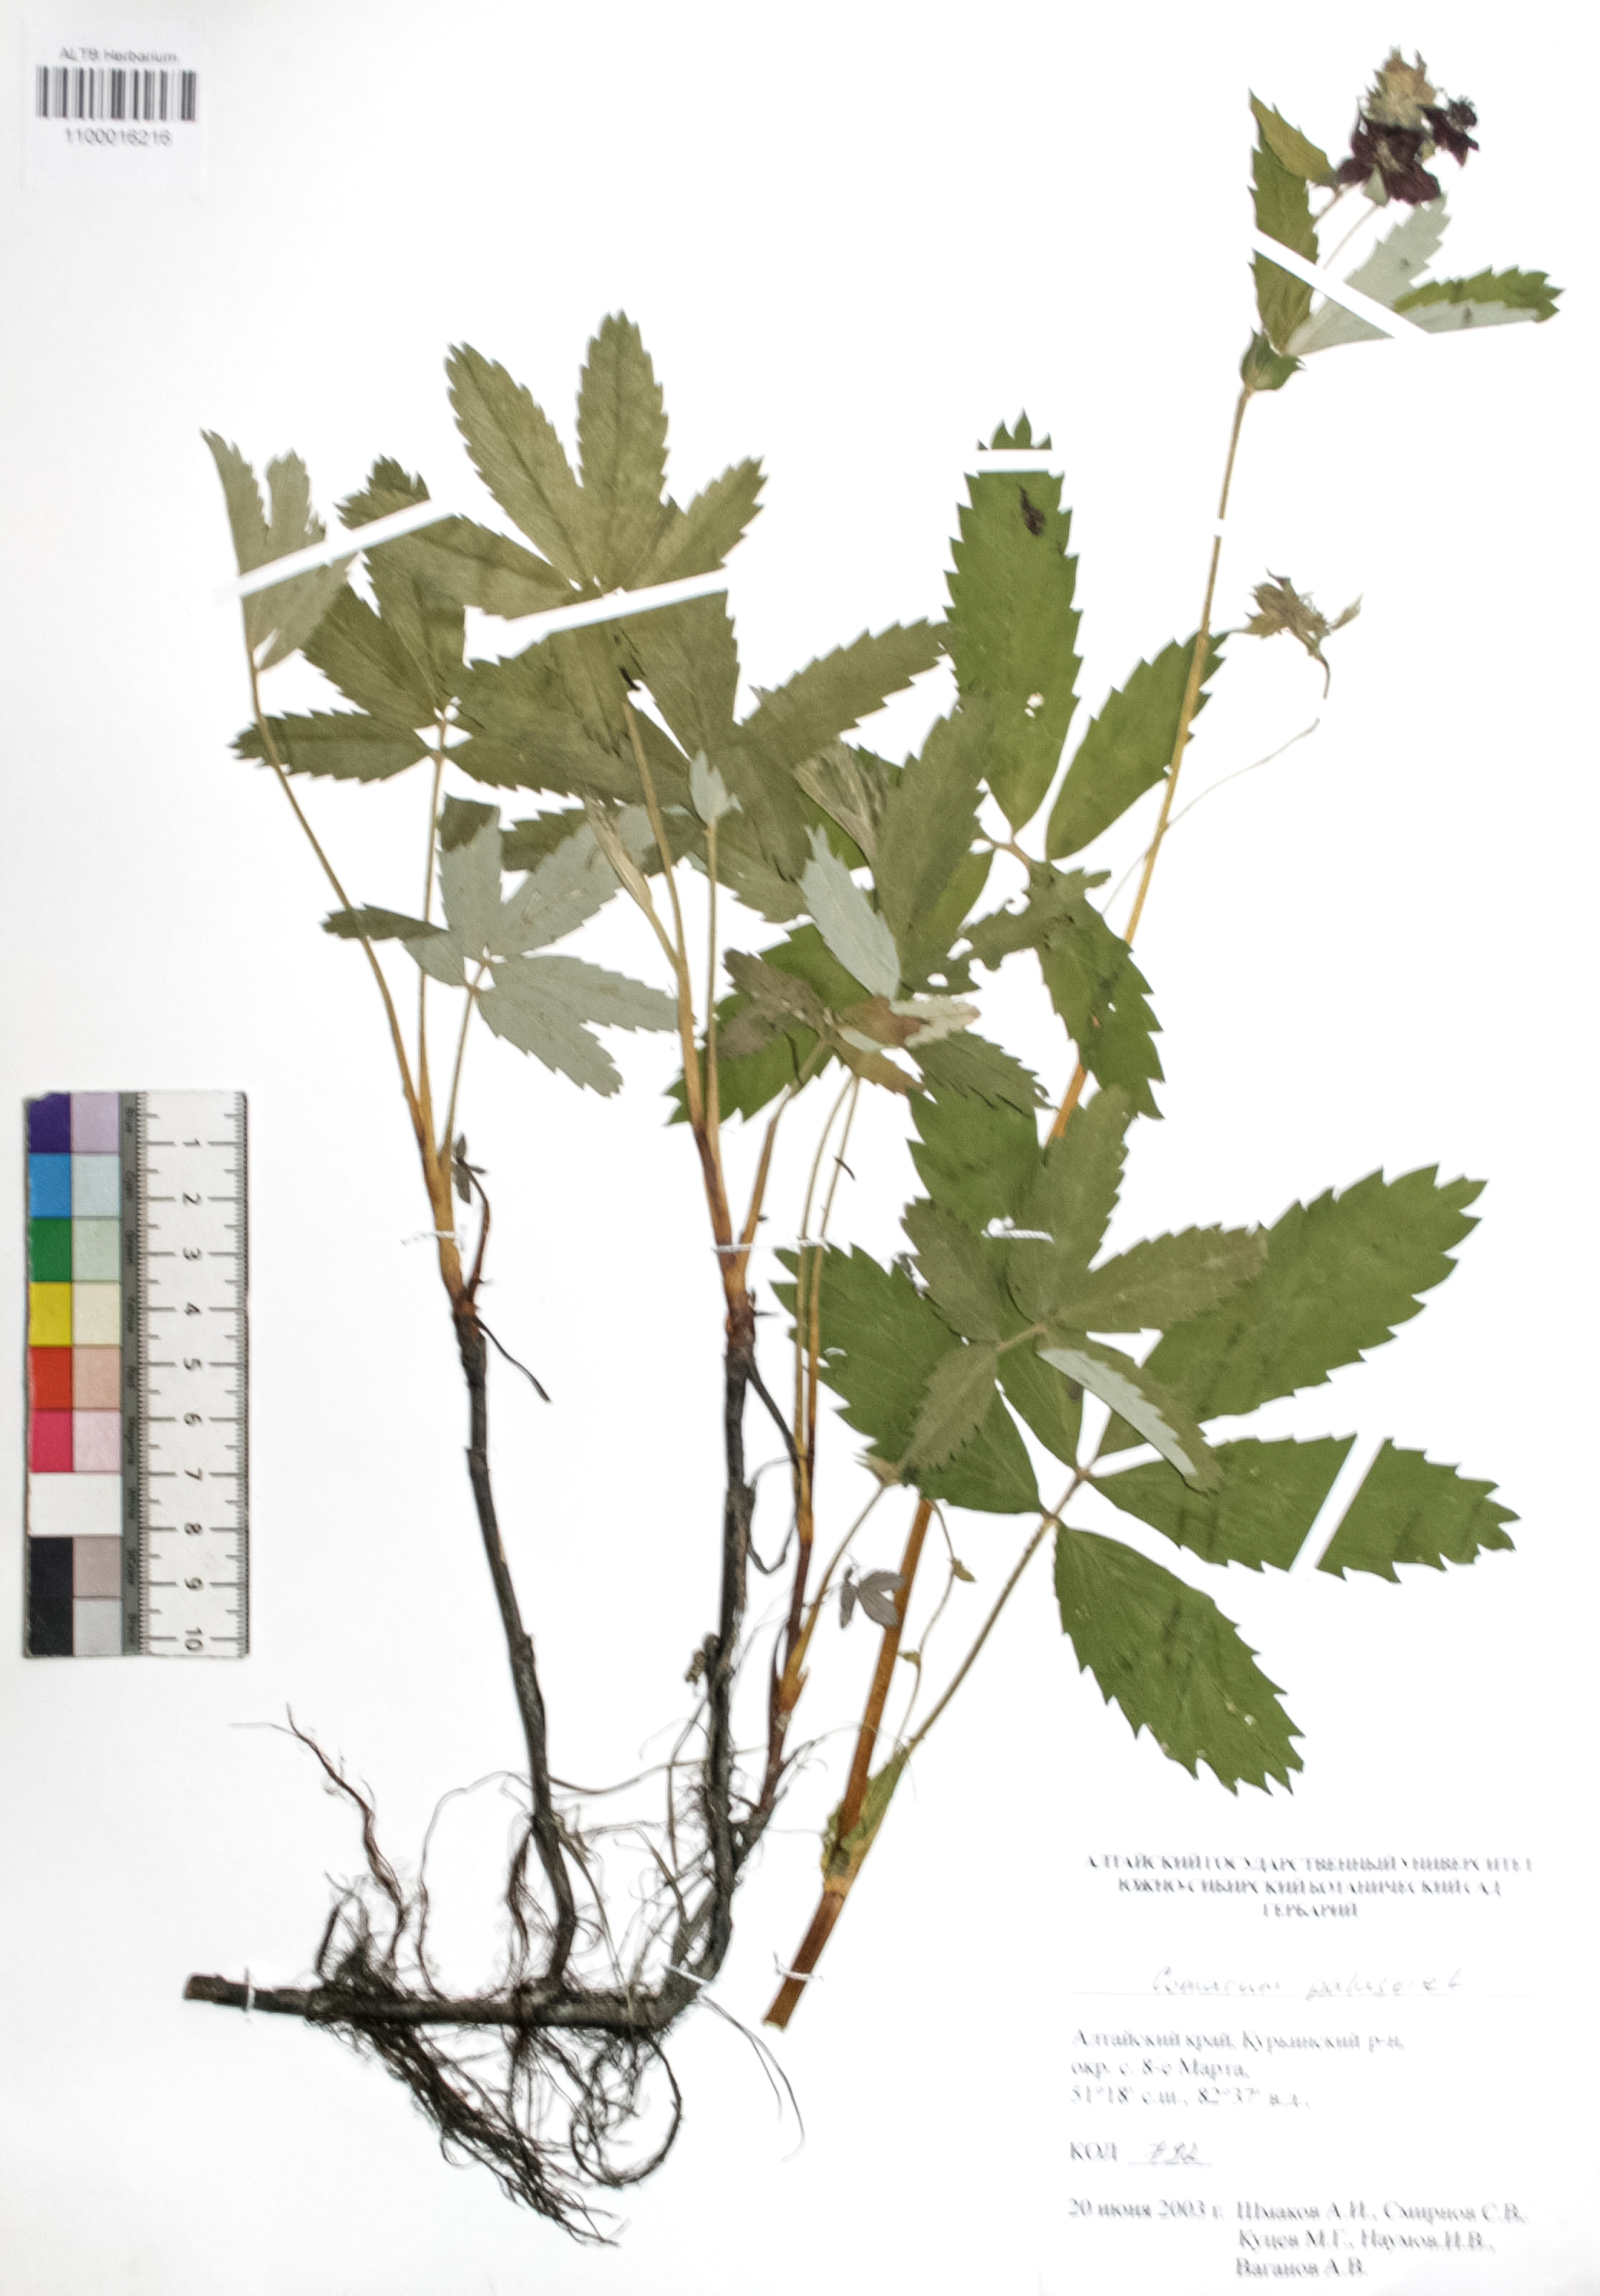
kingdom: Plantae
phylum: Tracheophyta
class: Magnoliopsida
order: Rosales
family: Rosaceae
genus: Comarum
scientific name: Comarum palustre
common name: Marsh cinquefoil
